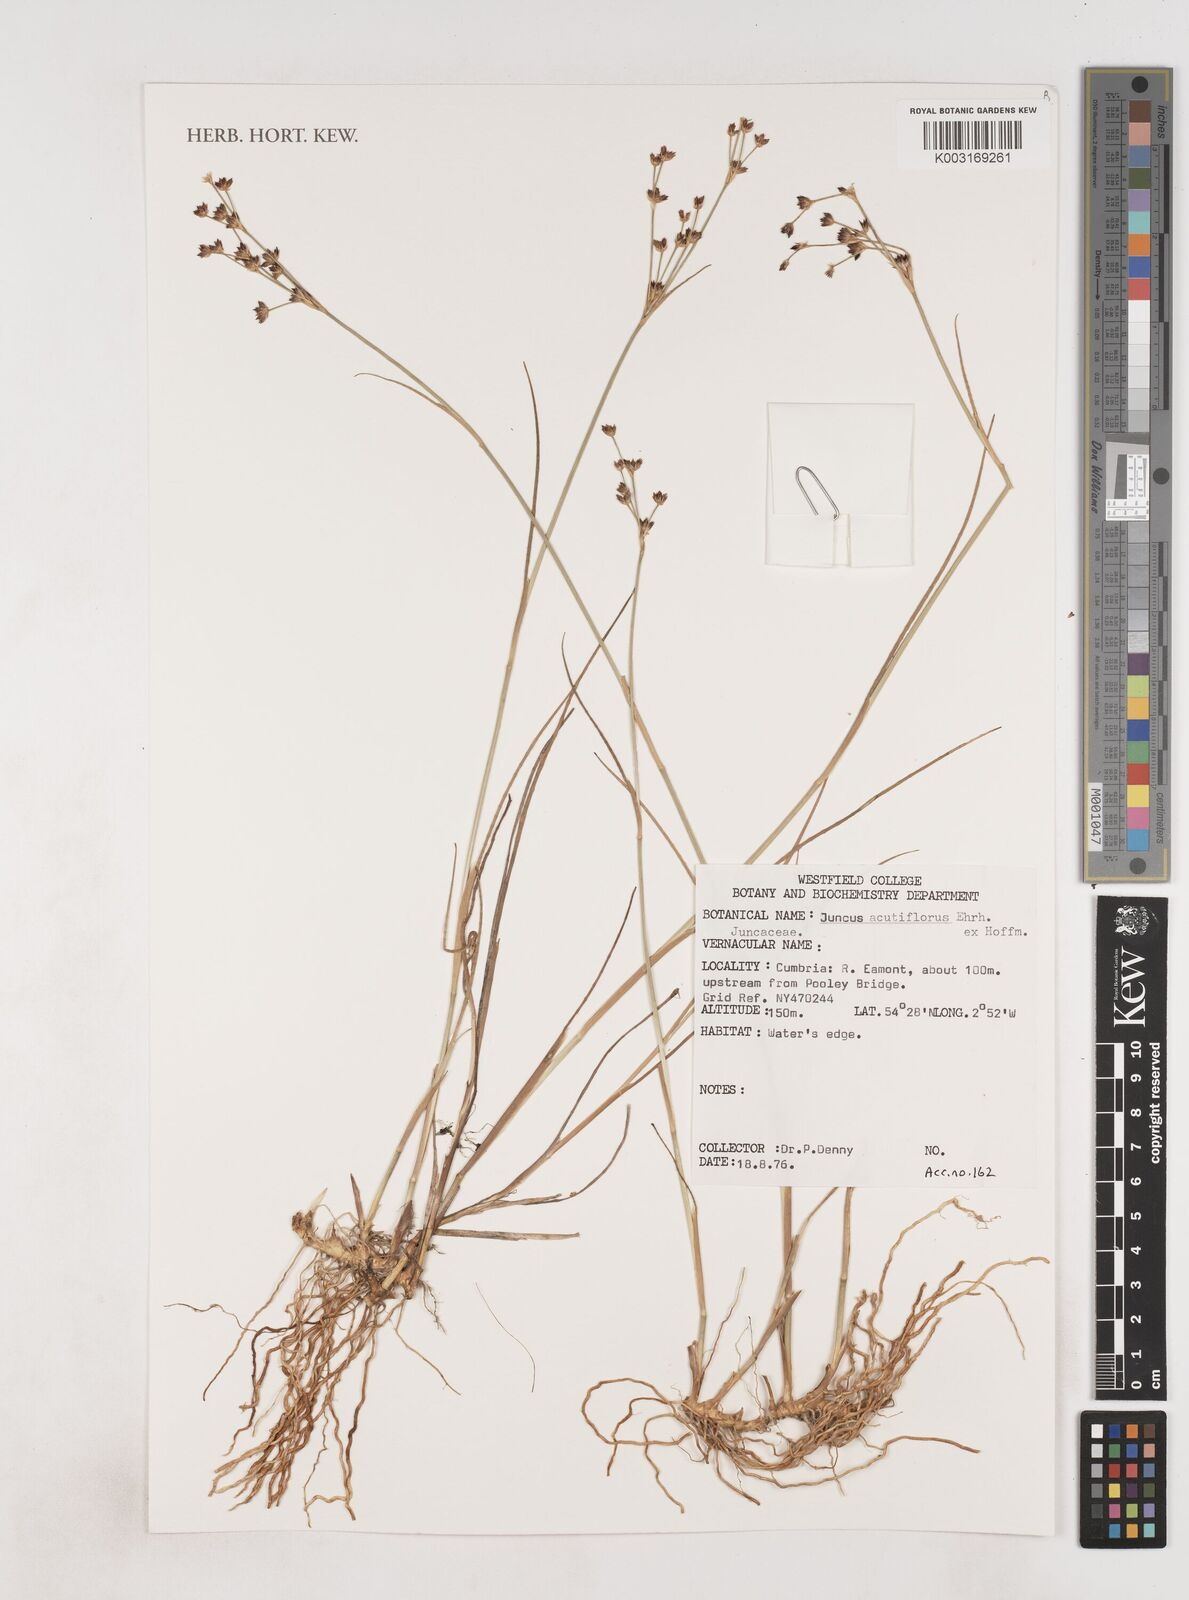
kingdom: Plantae
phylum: Tracheophyta
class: Liliopsida
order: Poales
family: Juncaceae
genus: Juncus
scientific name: Juncus acutiflorus
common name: Sharp-flowered rush
